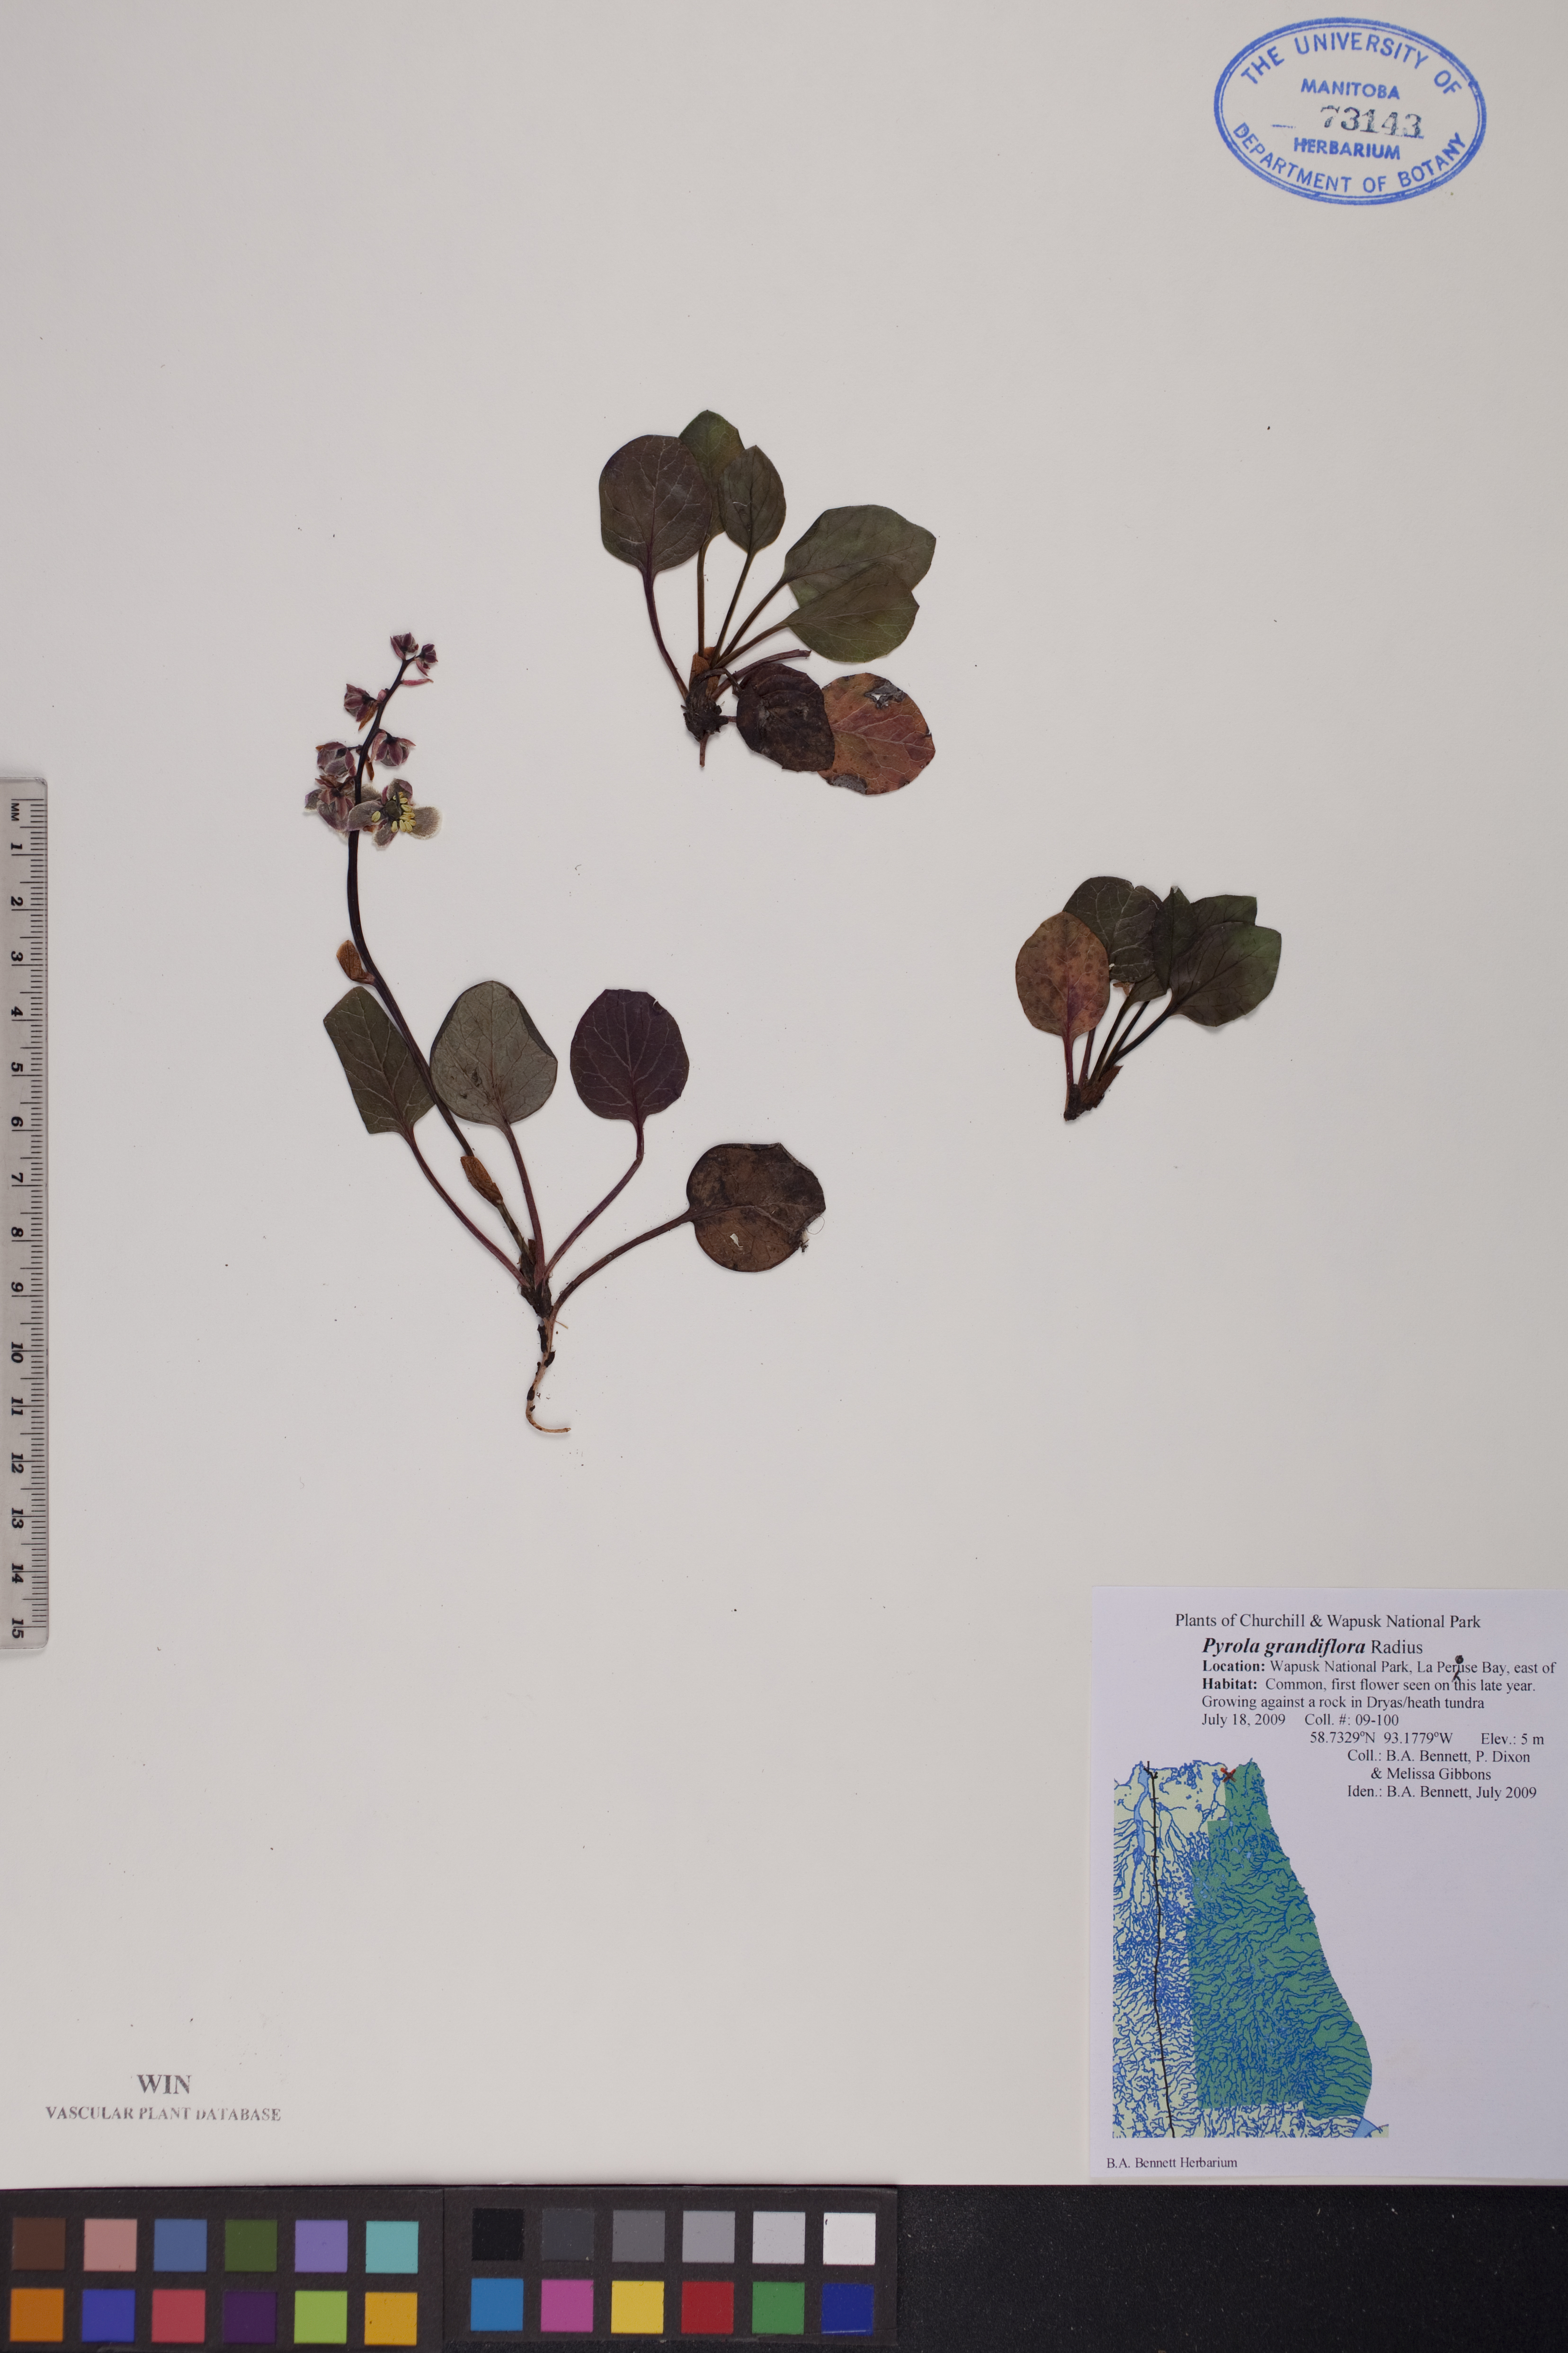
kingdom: Plantae
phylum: Tracheophyta
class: Magnoliopsida
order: Ericales
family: Ericaceae
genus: Pyrola
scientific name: Pyrola grandiflora
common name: Arctic pyrola
